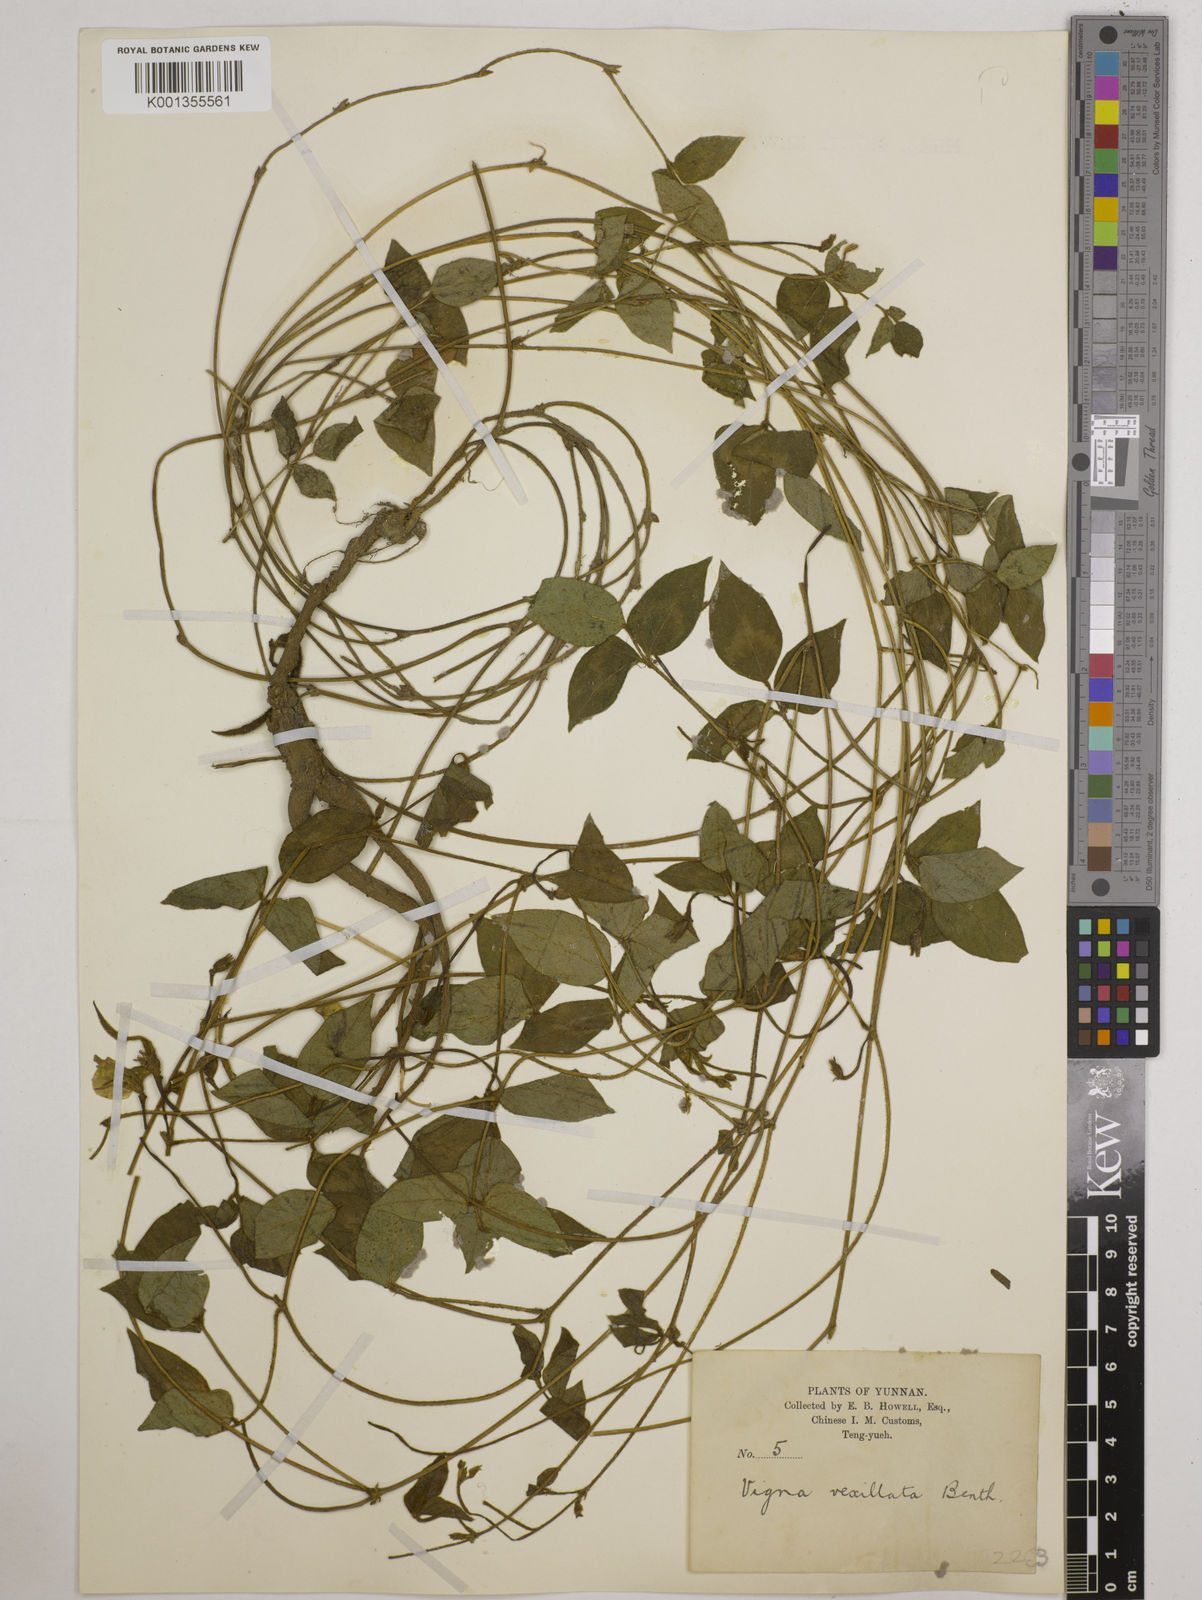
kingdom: Plantae
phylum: Tracheophyta
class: Magnoliopsida
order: Fabales
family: Fabaceae
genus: Vigna
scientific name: Vigna vexillata
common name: Zombi pea
